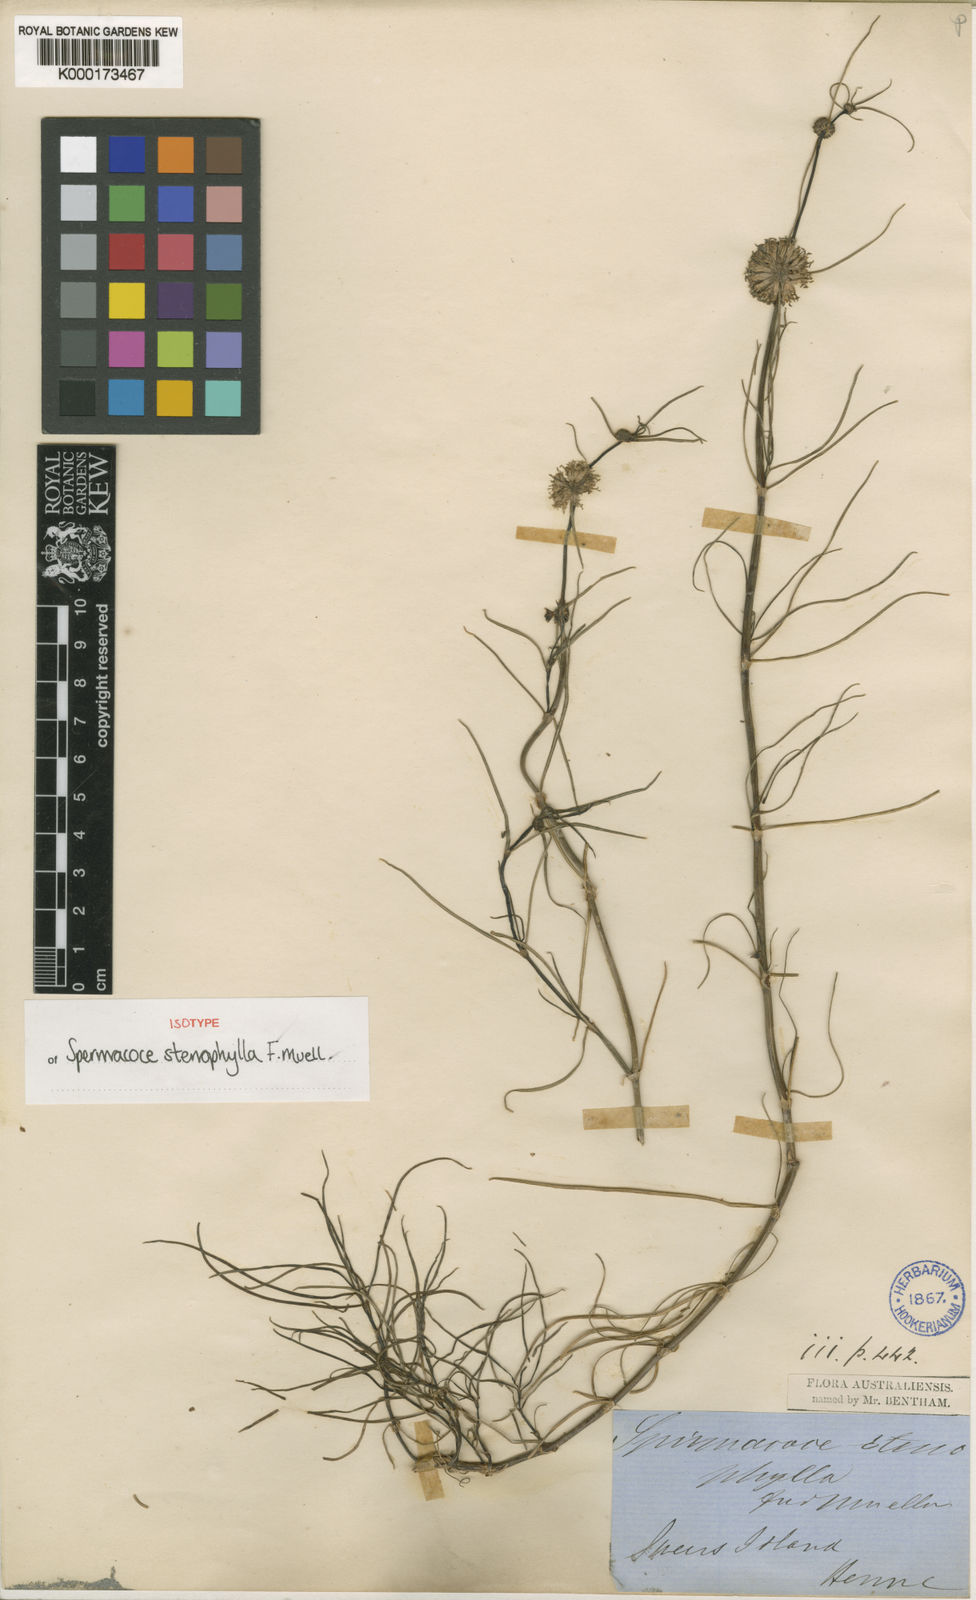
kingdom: Plantae
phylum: Tracheophyta
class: Magnoliopsida
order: Gentianales
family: Rubiaceae
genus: Spermacoce
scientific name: Spermacoce stenophylla
